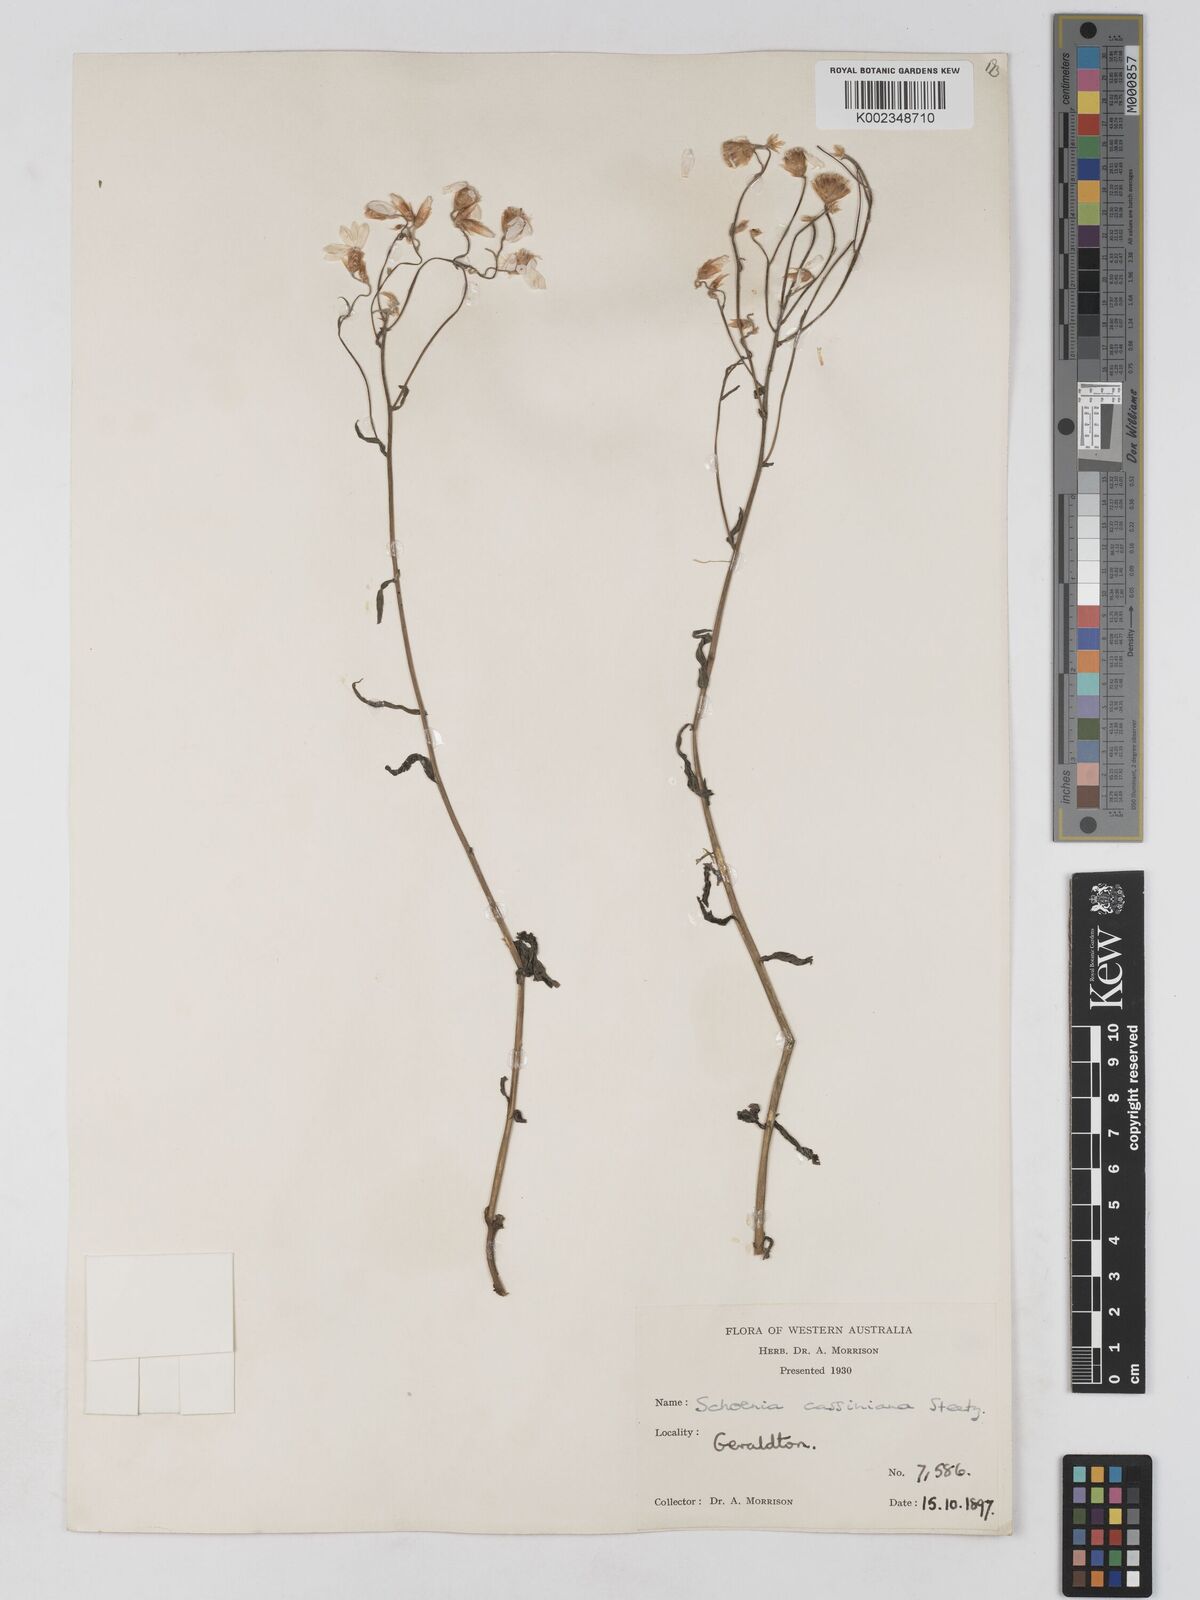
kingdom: Plantae
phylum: Tracheophyta
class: Magnoliopsida
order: Asterales
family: Asteraceae
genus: Schoenia
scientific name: Schoenia cassiniana
